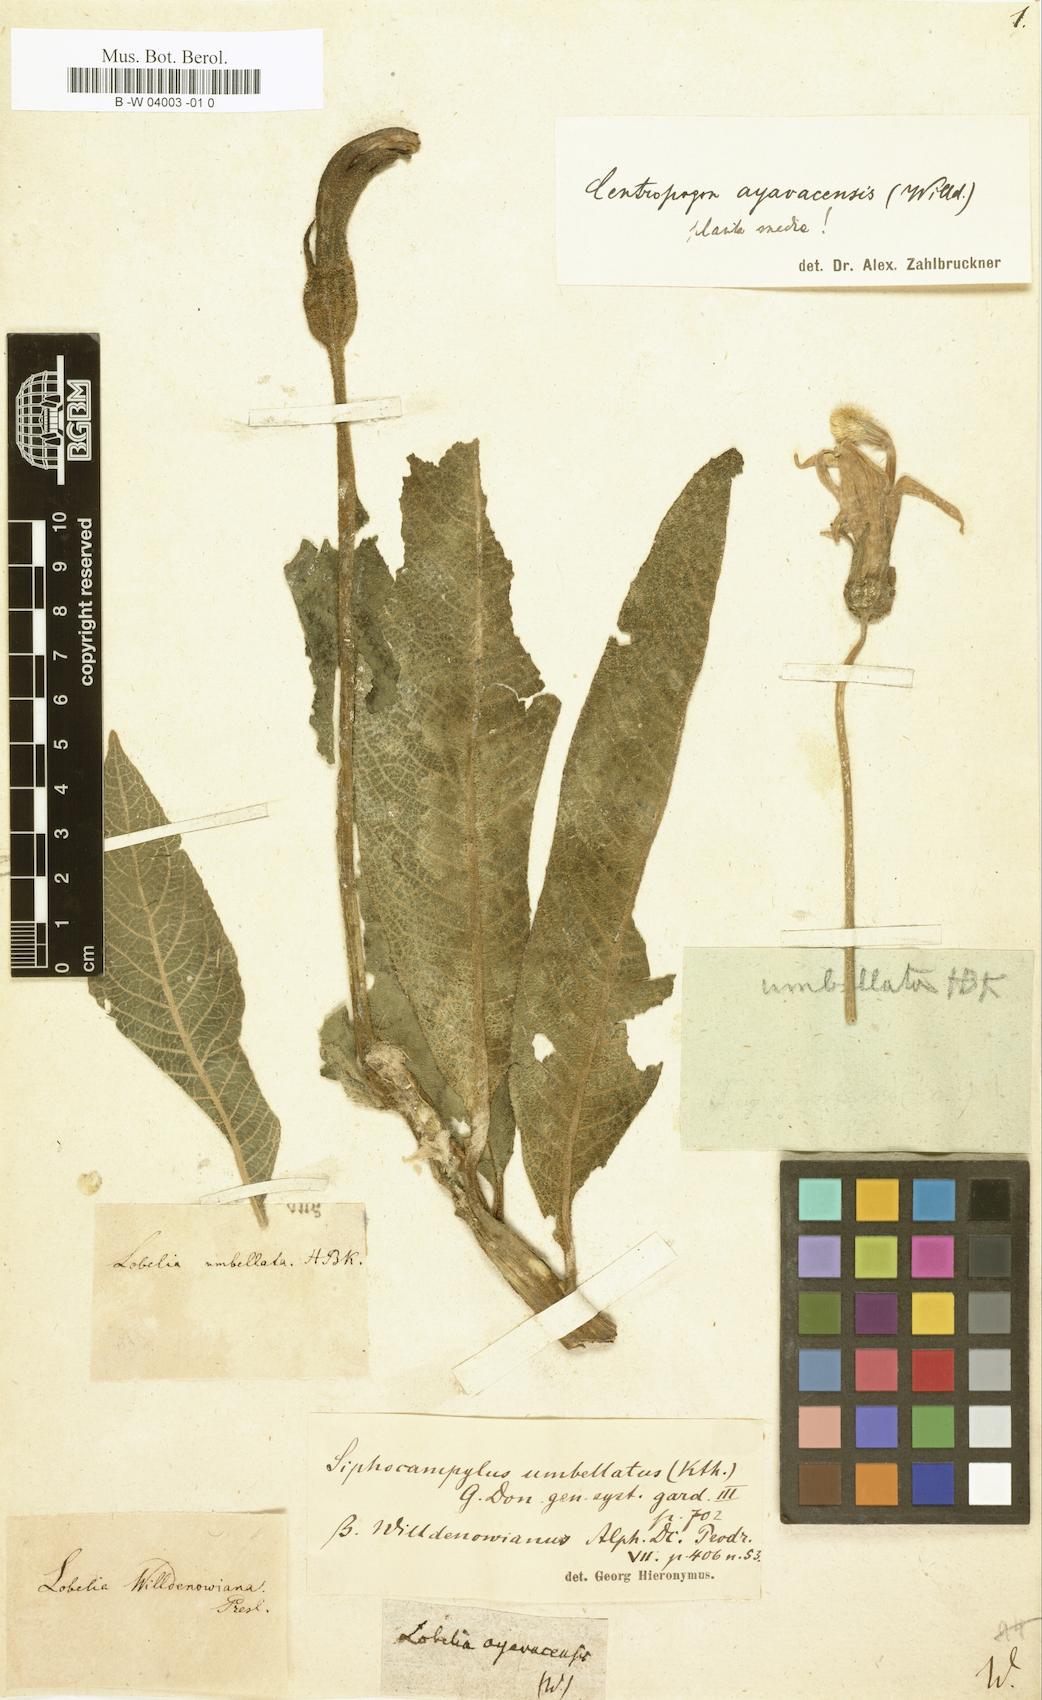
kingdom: Plantae
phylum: Tracheophyta
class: Magnoliopsida
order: Asterales
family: Campanulaceae
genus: Centropogon
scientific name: Centropogon ayavacensis
